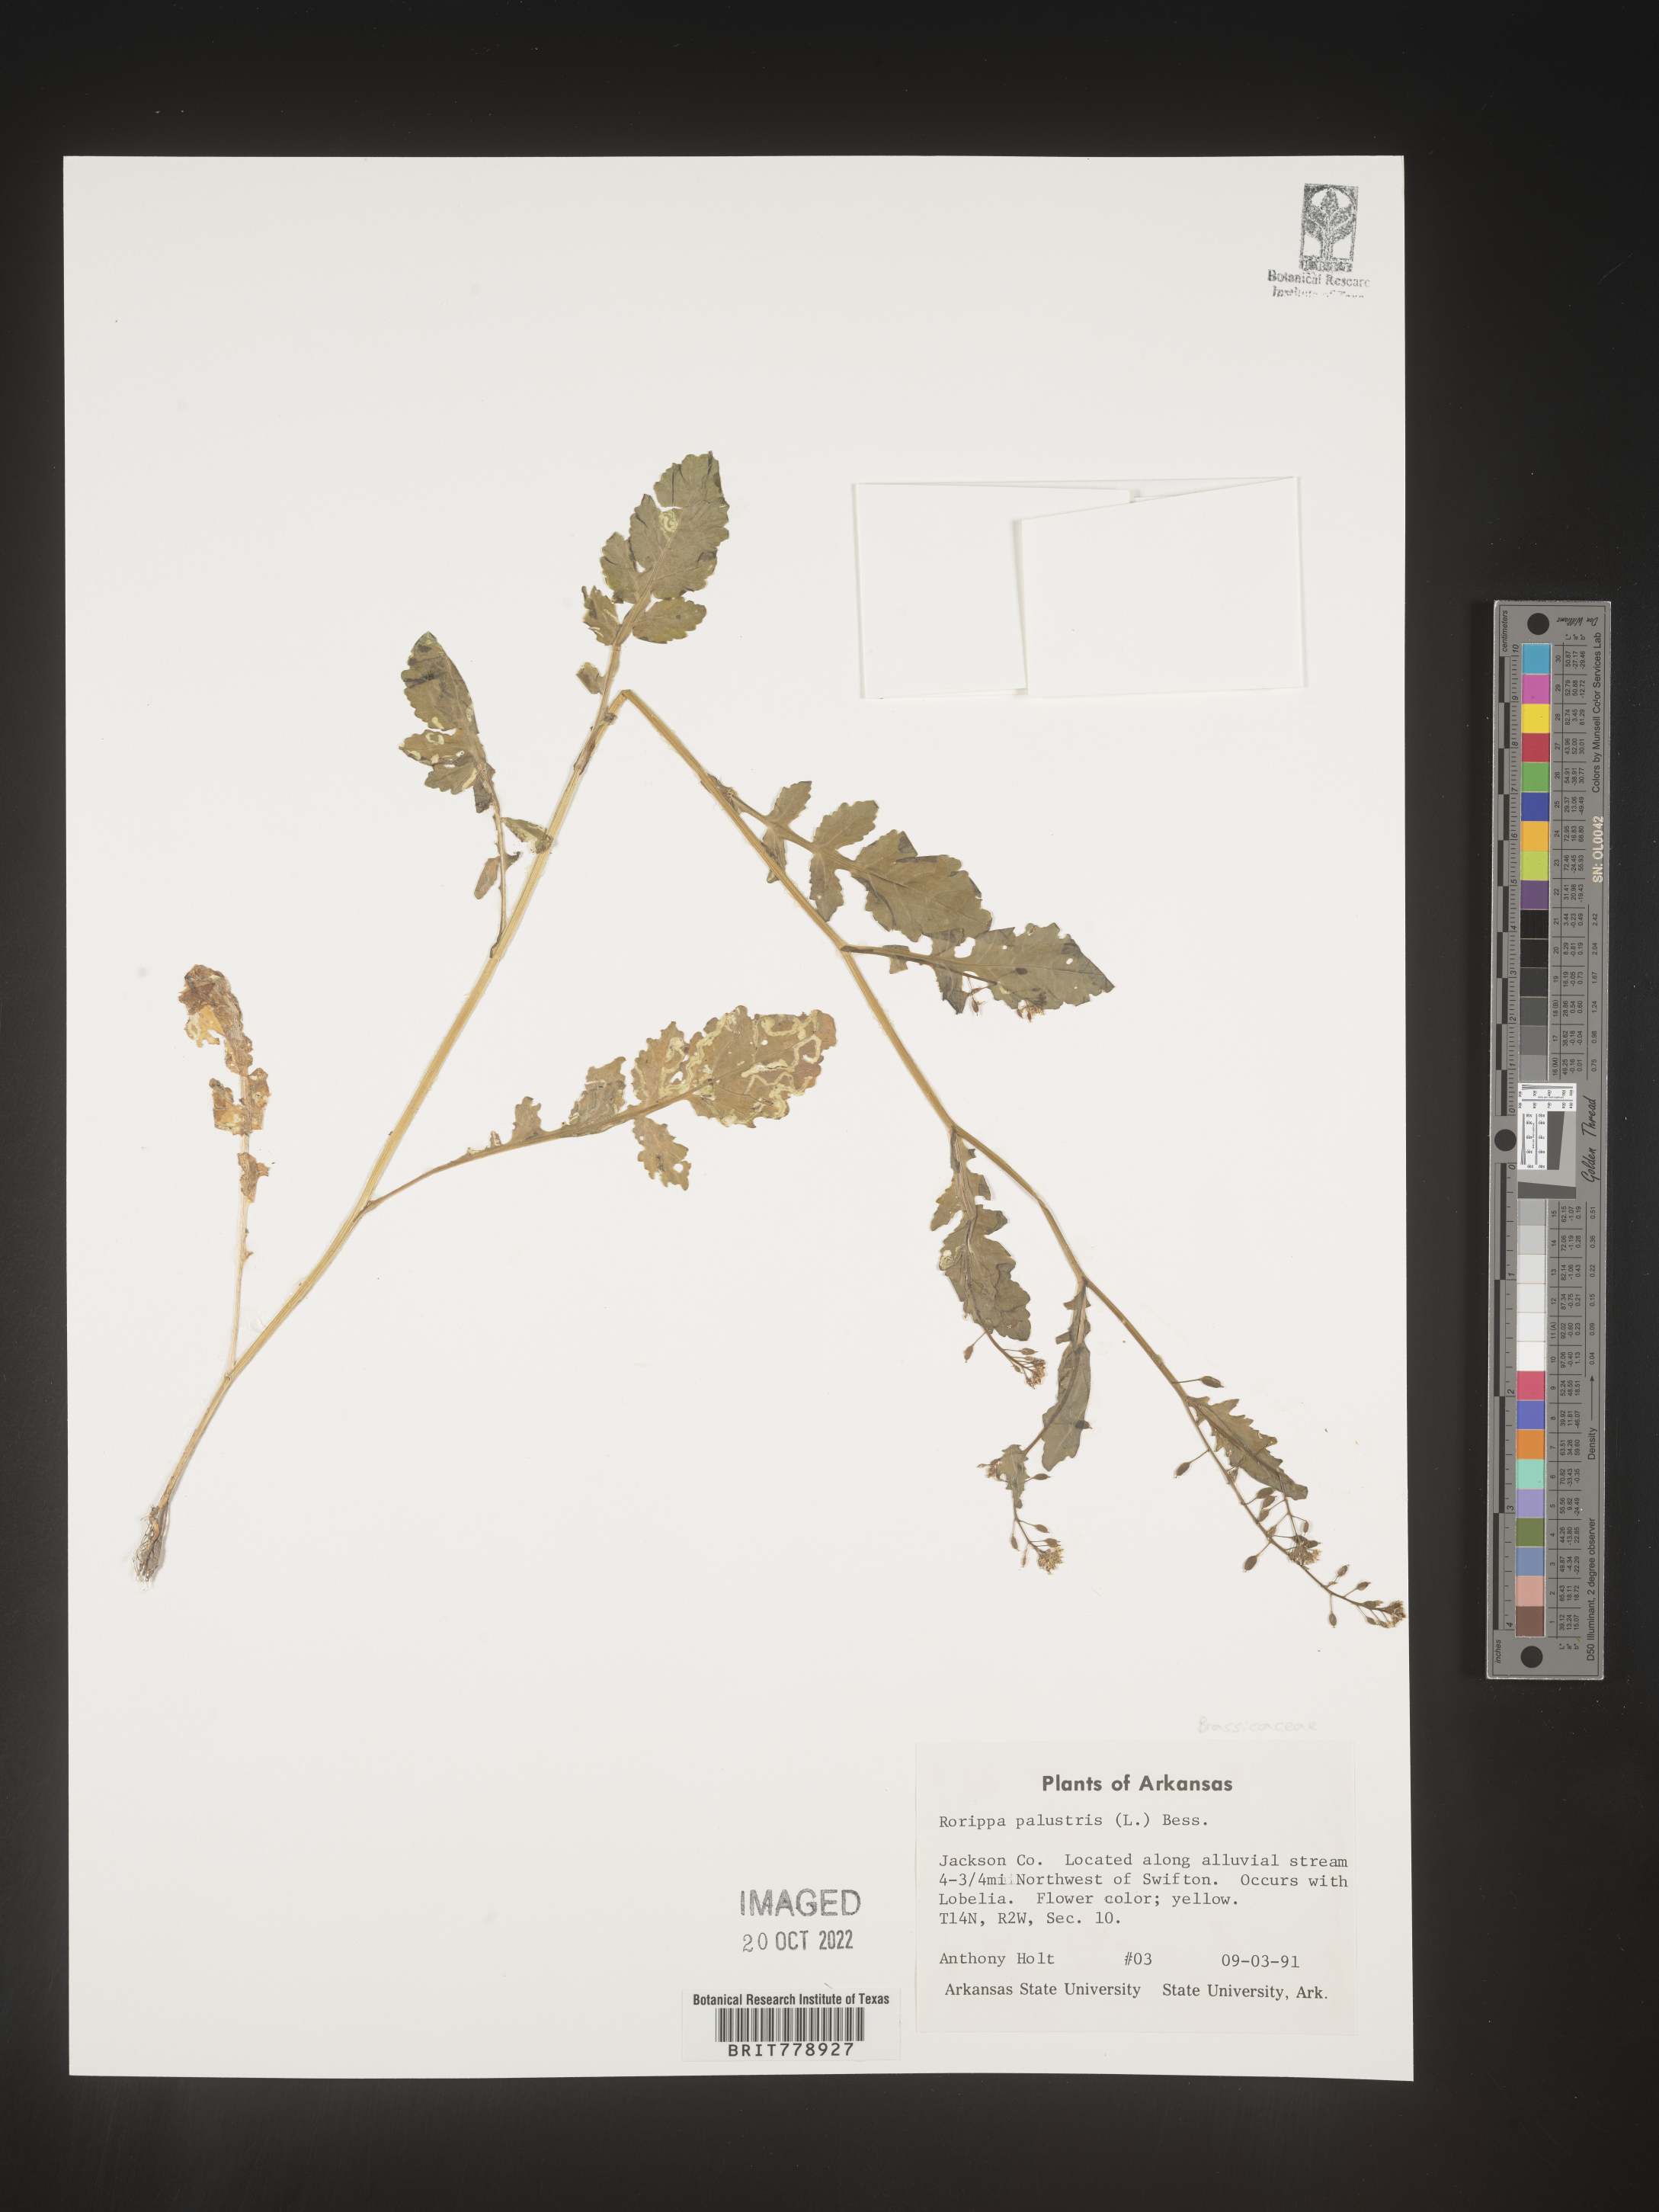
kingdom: Plantae
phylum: Tracheophyta
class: Magnoliopsida
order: Brassicales
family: Brassicaceae
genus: Rorippa
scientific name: Rorippa palustris
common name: Marsh yellow-cress
